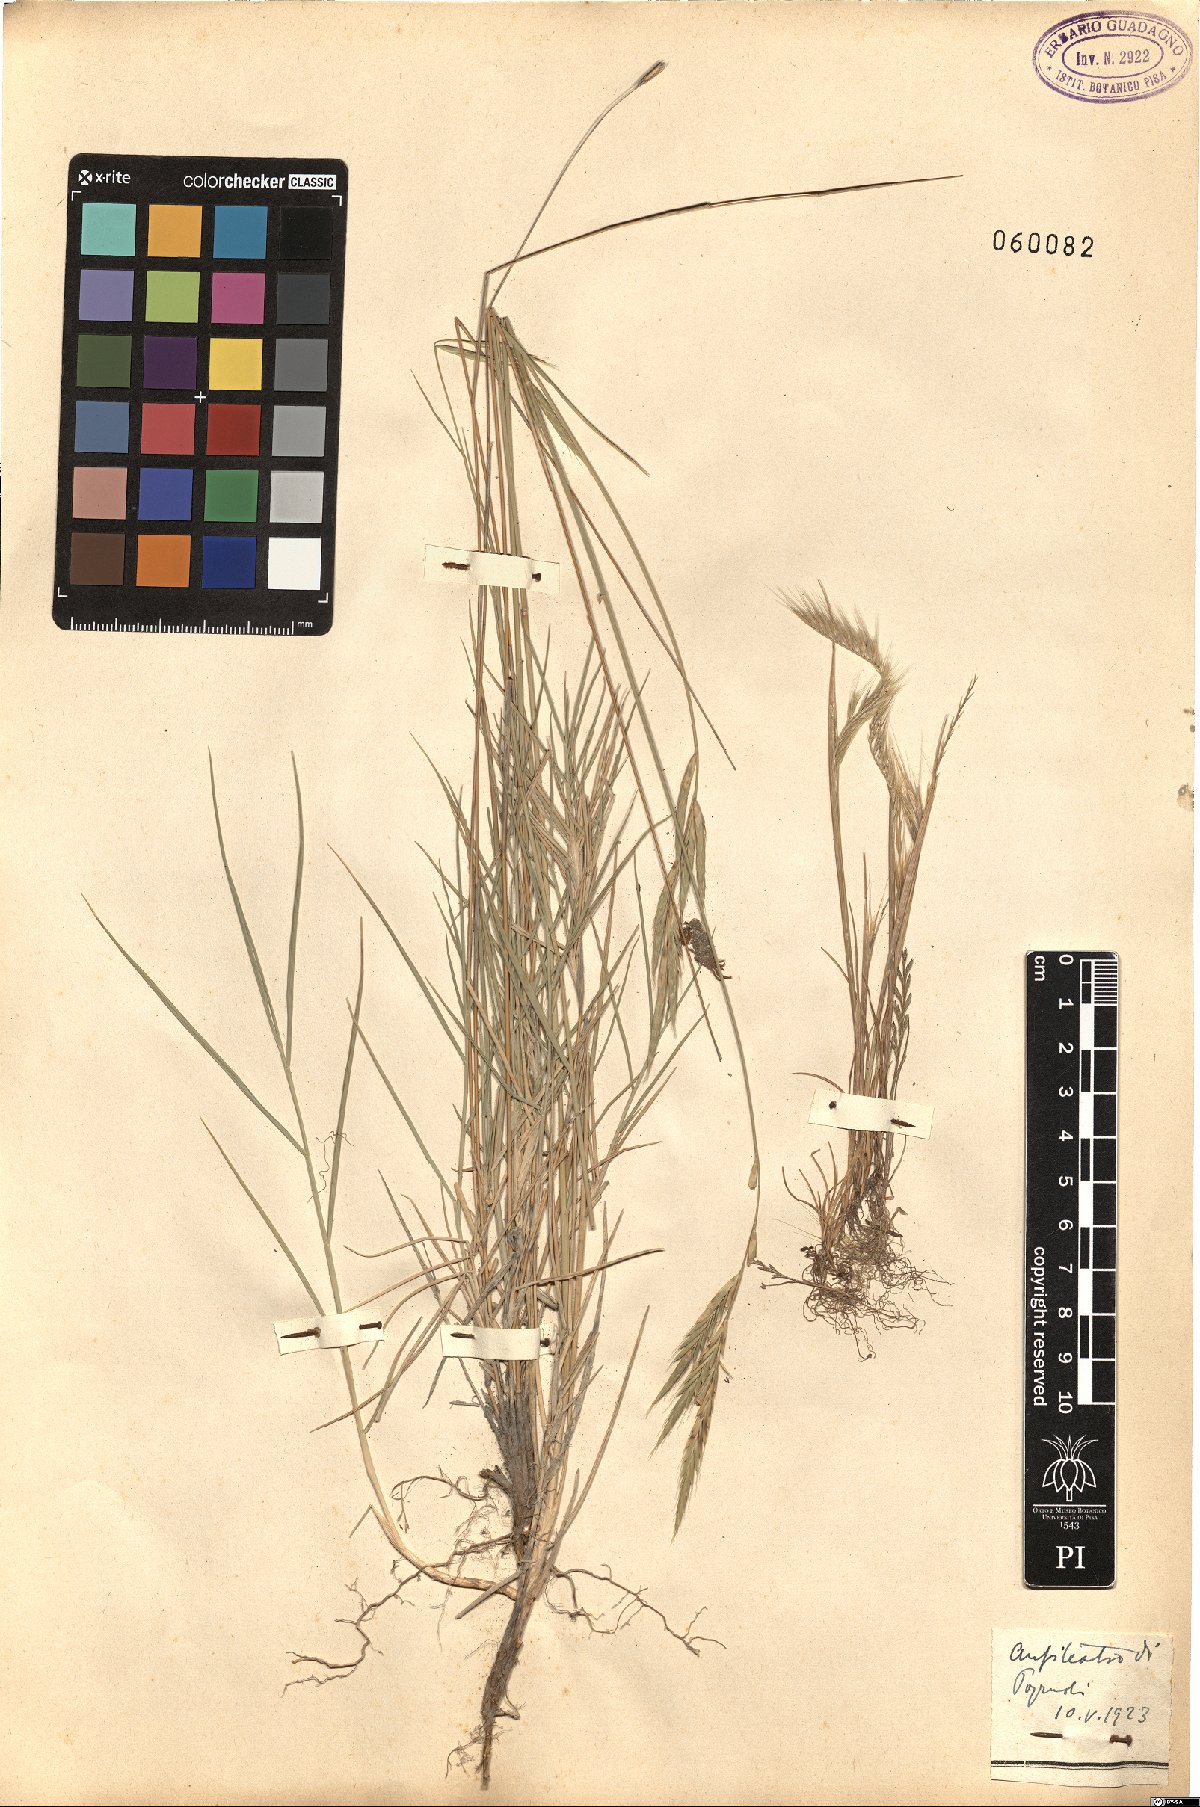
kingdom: Plantae
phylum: Tracheophyta
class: Liliopsida
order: Poales
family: Poaceae
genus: Festuca
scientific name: Festuca
